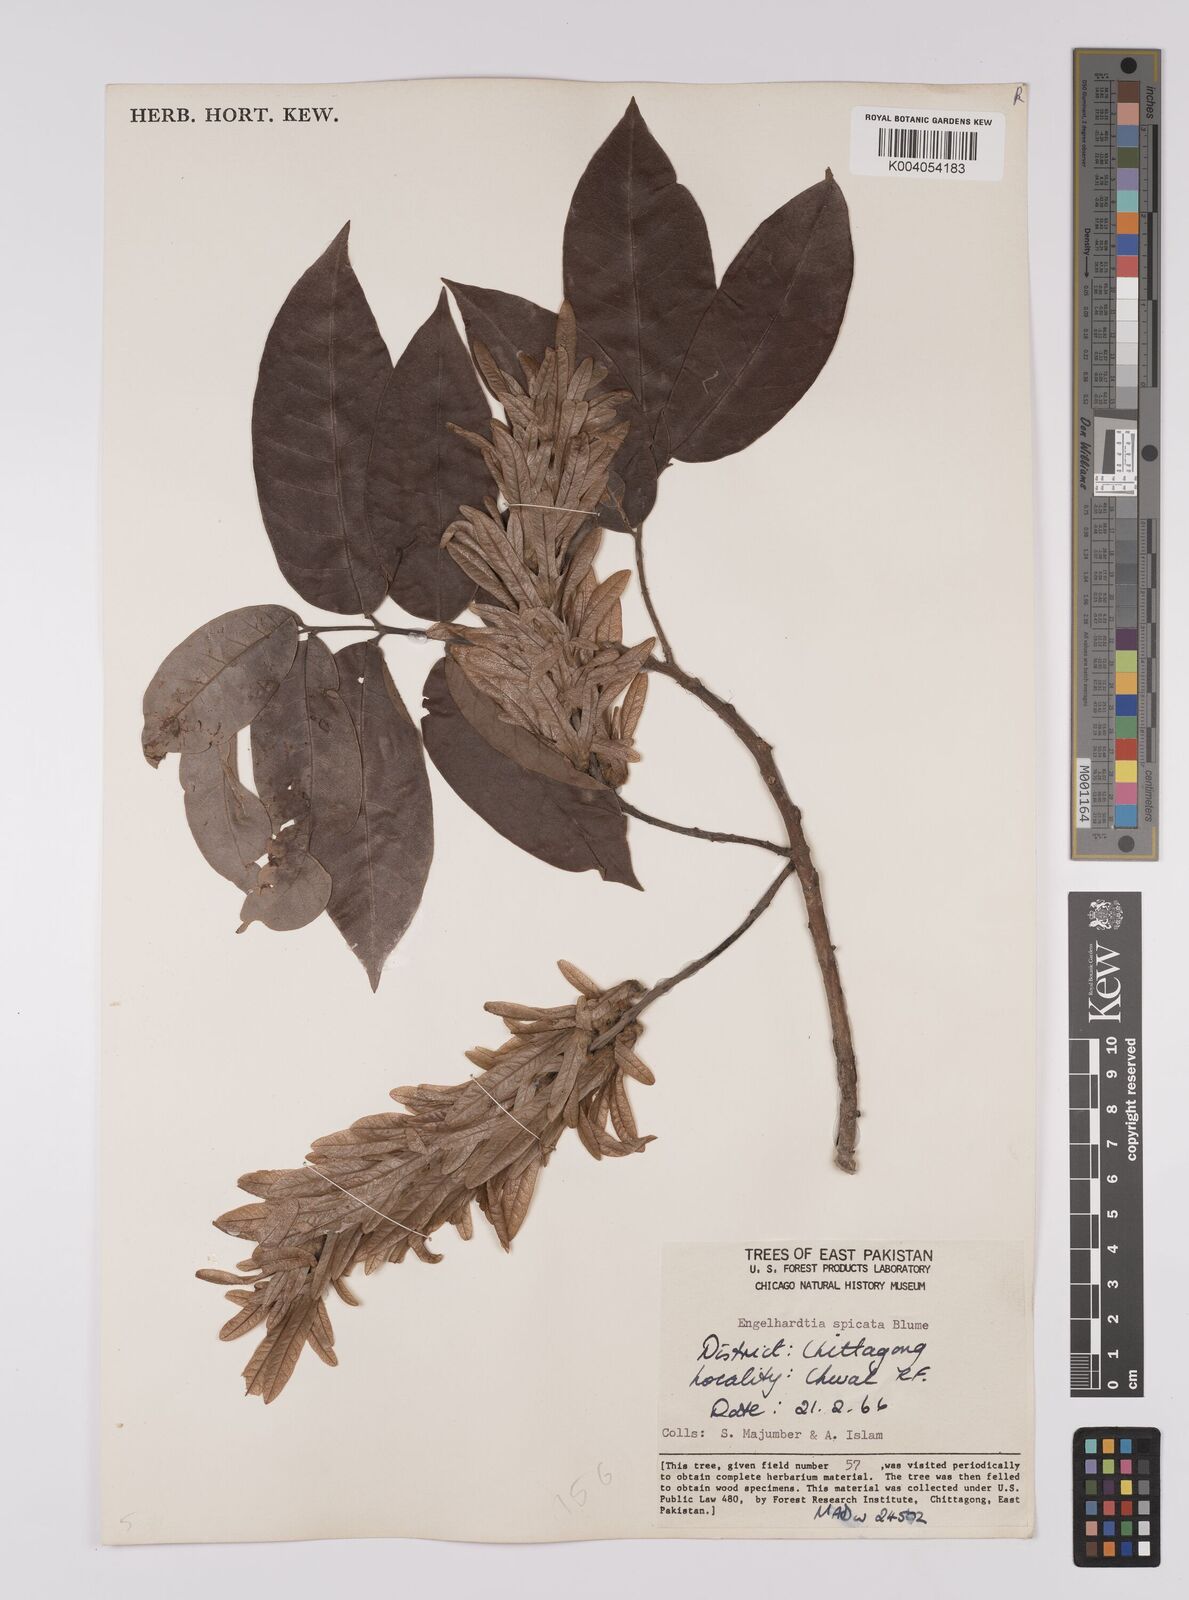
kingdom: Plantae
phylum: Tracheophyta
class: Magnoliopsida
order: Fagales
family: Juglandaceae
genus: Engelhardia
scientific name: Engelhardia spicata
